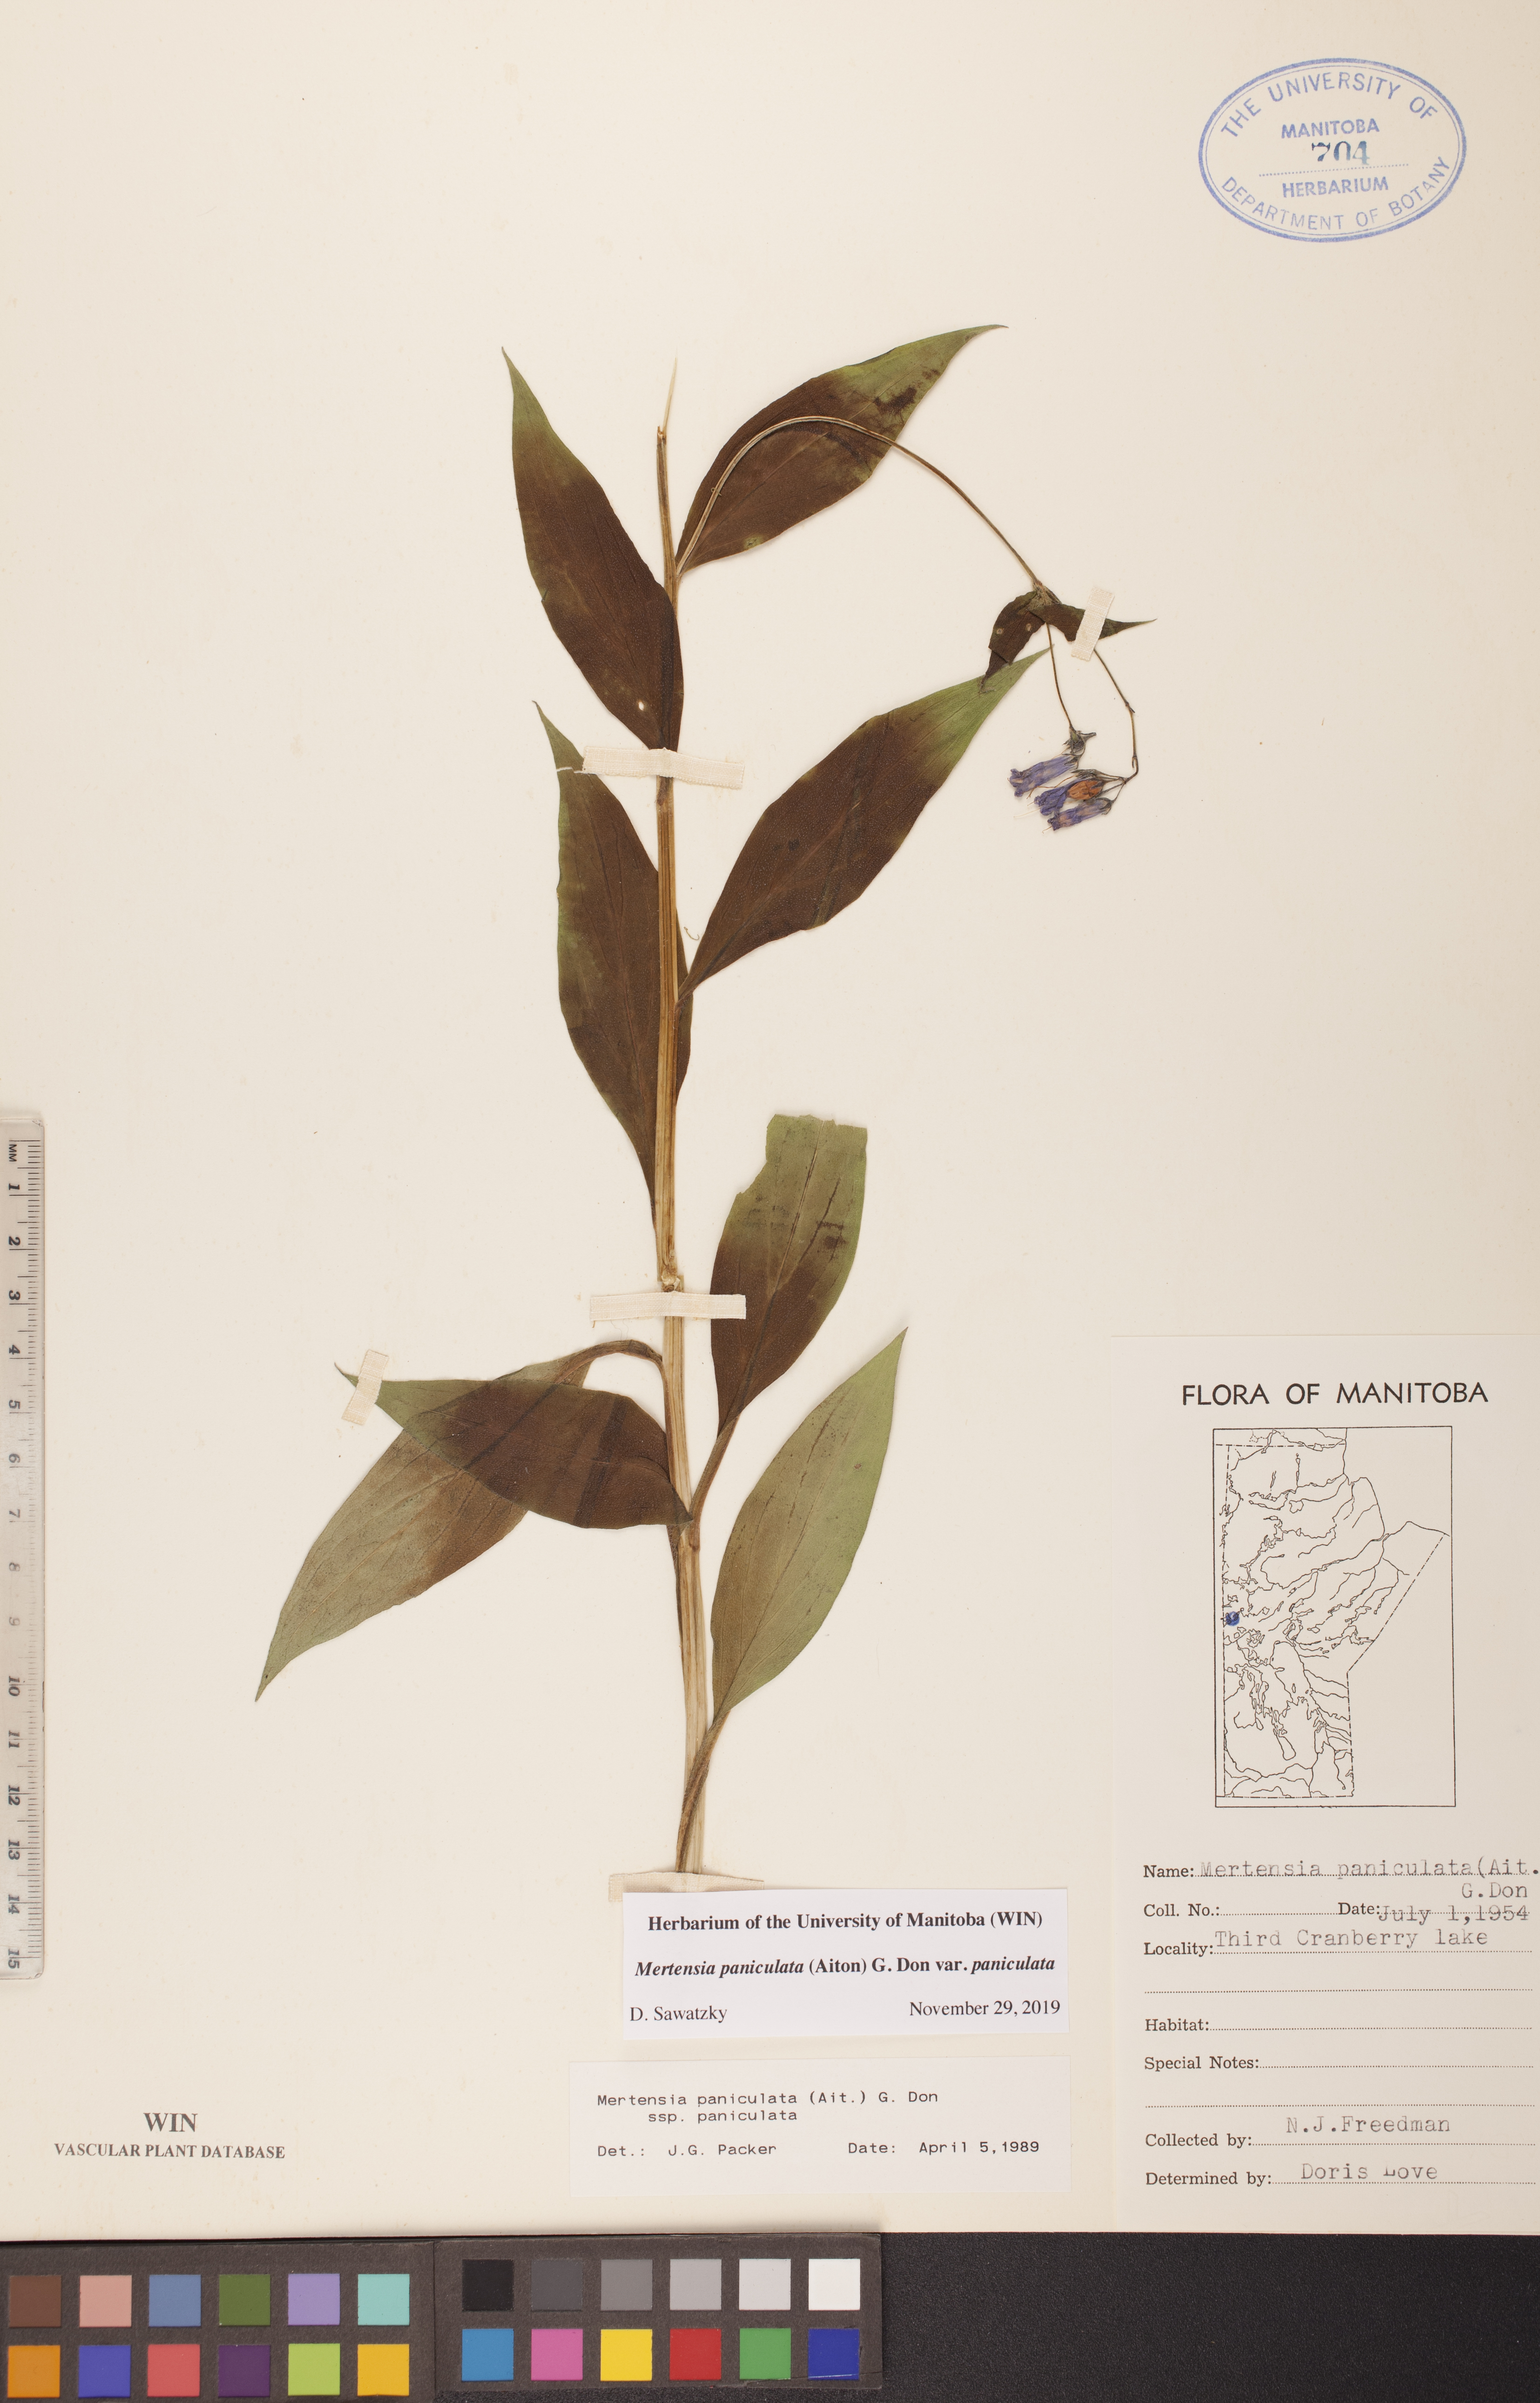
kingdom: Plantae
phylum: Tracheophyta
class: Magnoliopsida
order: Boraginales
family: Boraginaceae
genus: Mertensia
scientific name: Mertensia paniculata
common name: Panicled bluebells
